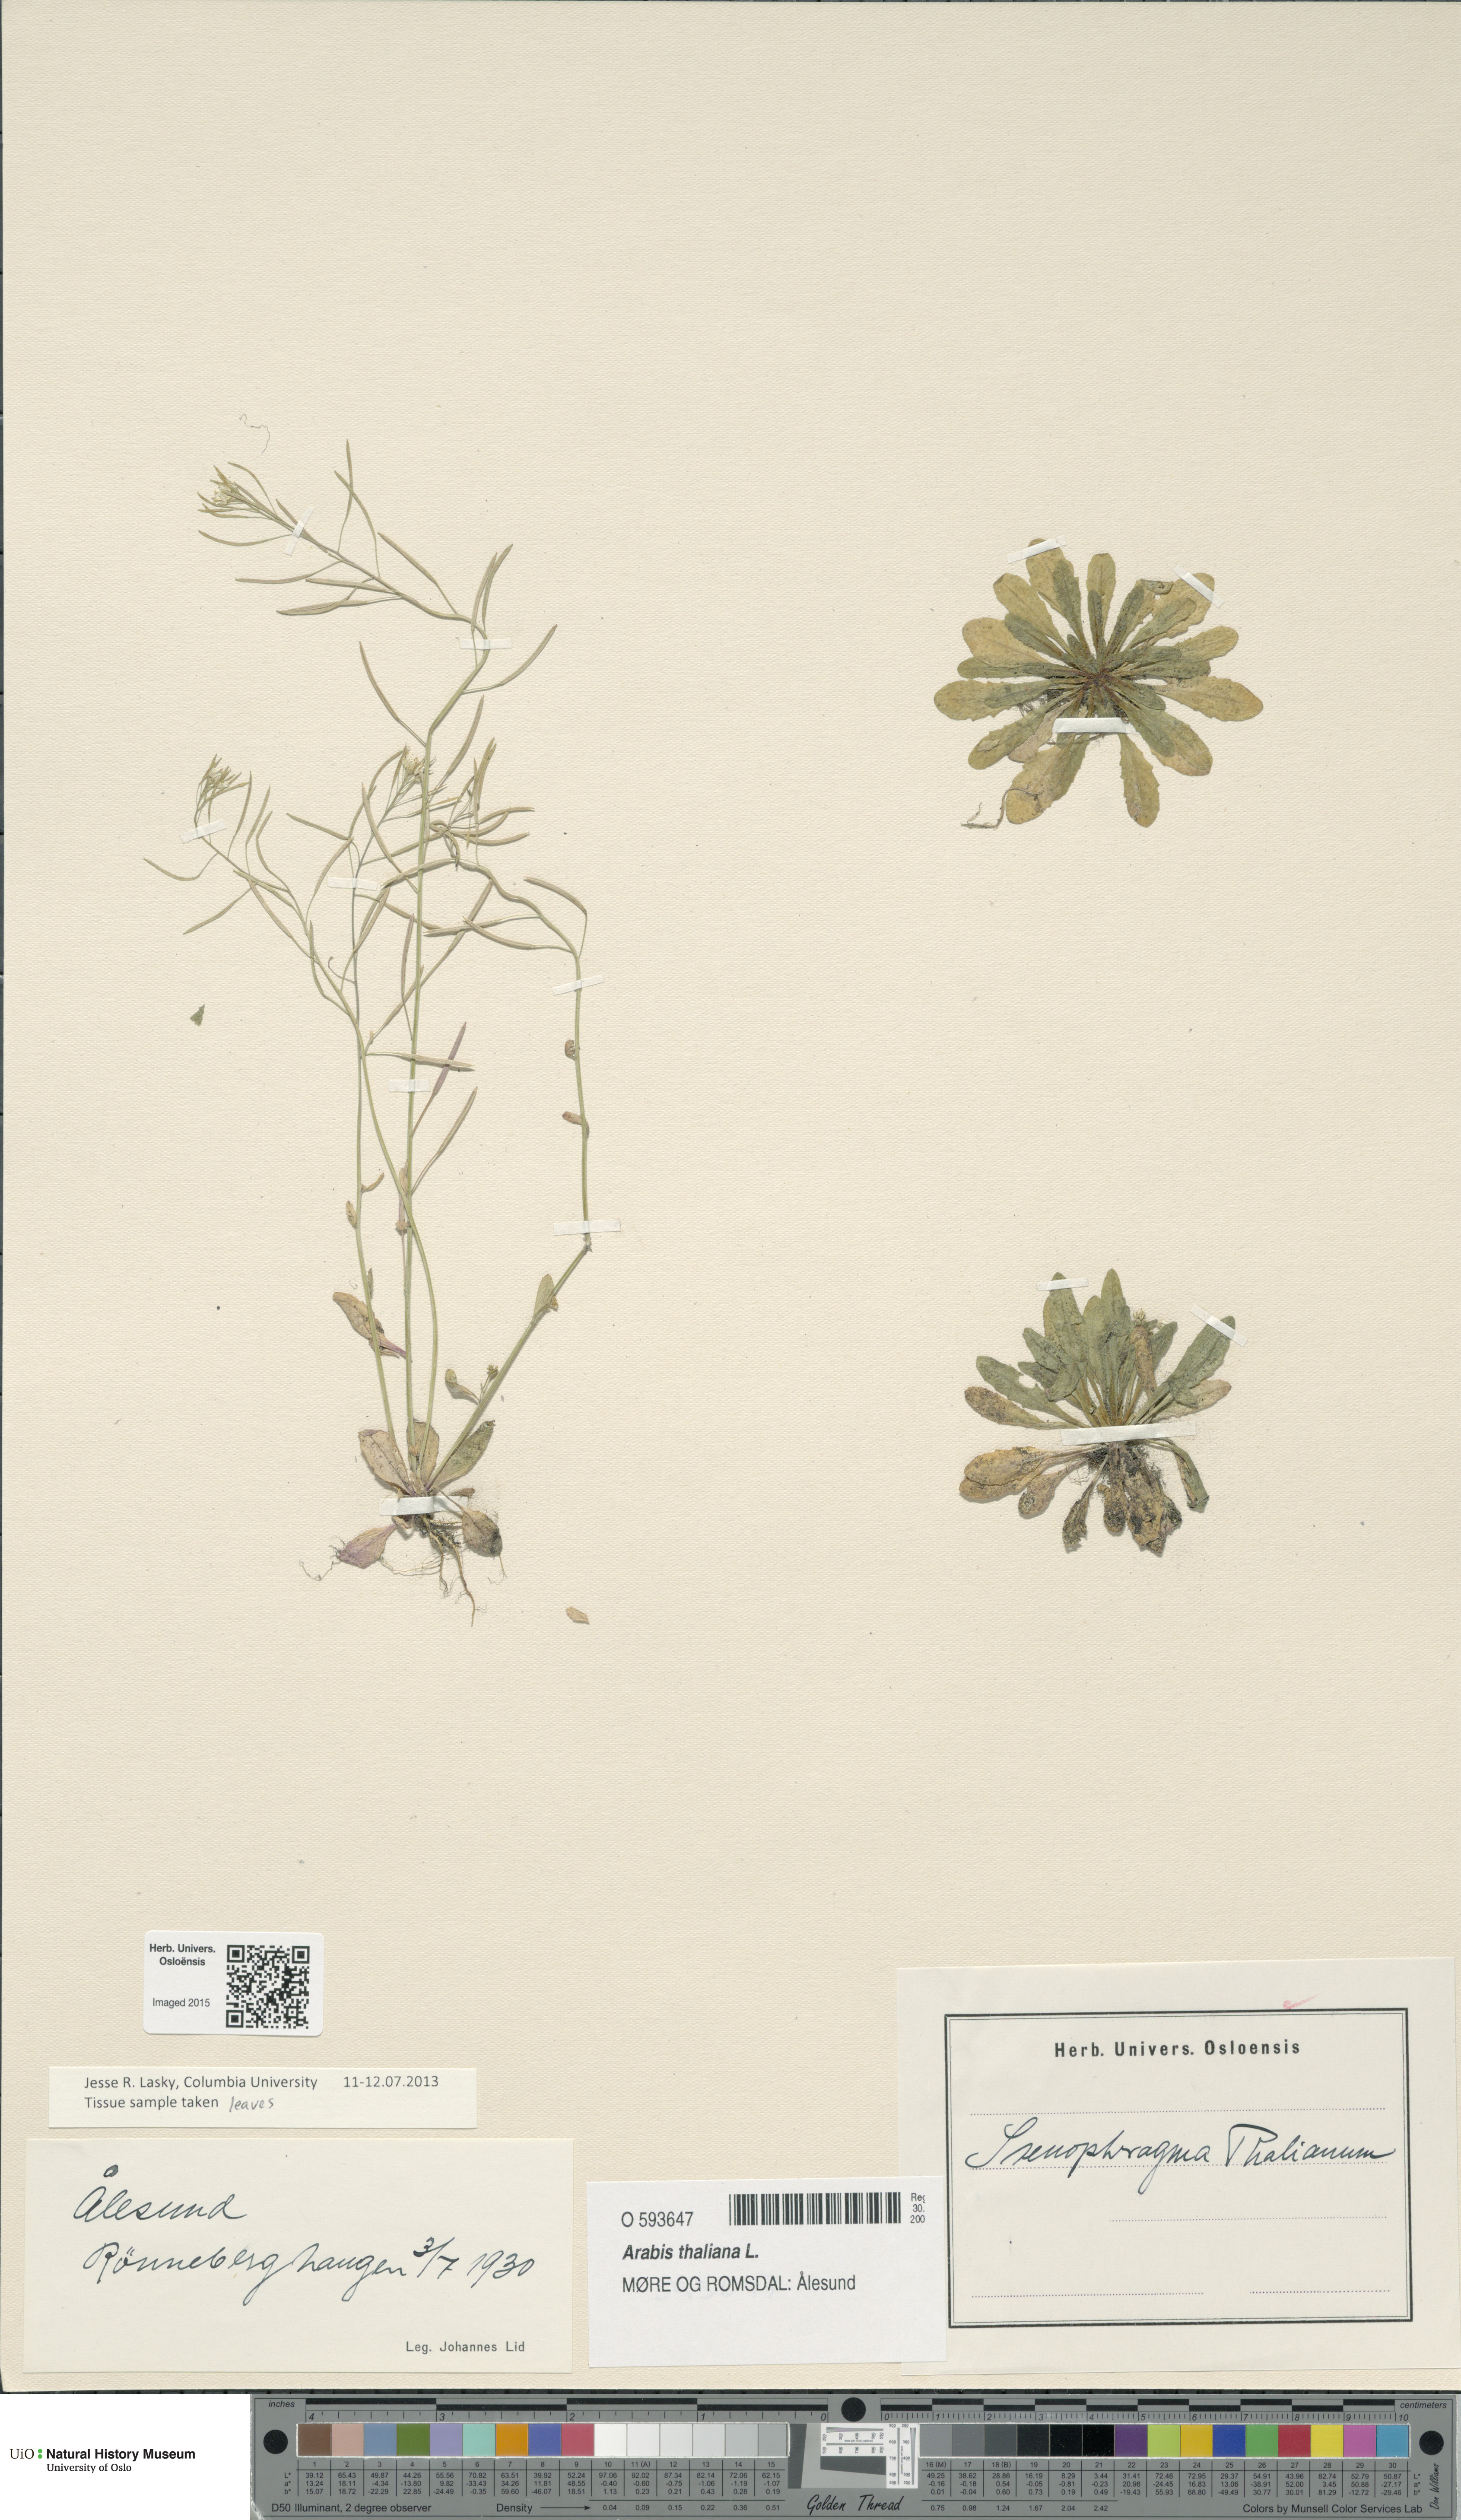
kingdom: Plantae
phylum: Tracheophyta
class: Magnoliopsida
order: Brassicales
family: Brassicaceae
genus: Arabidopsis
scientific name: Arabidopsis thaliana
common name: Thale cress
